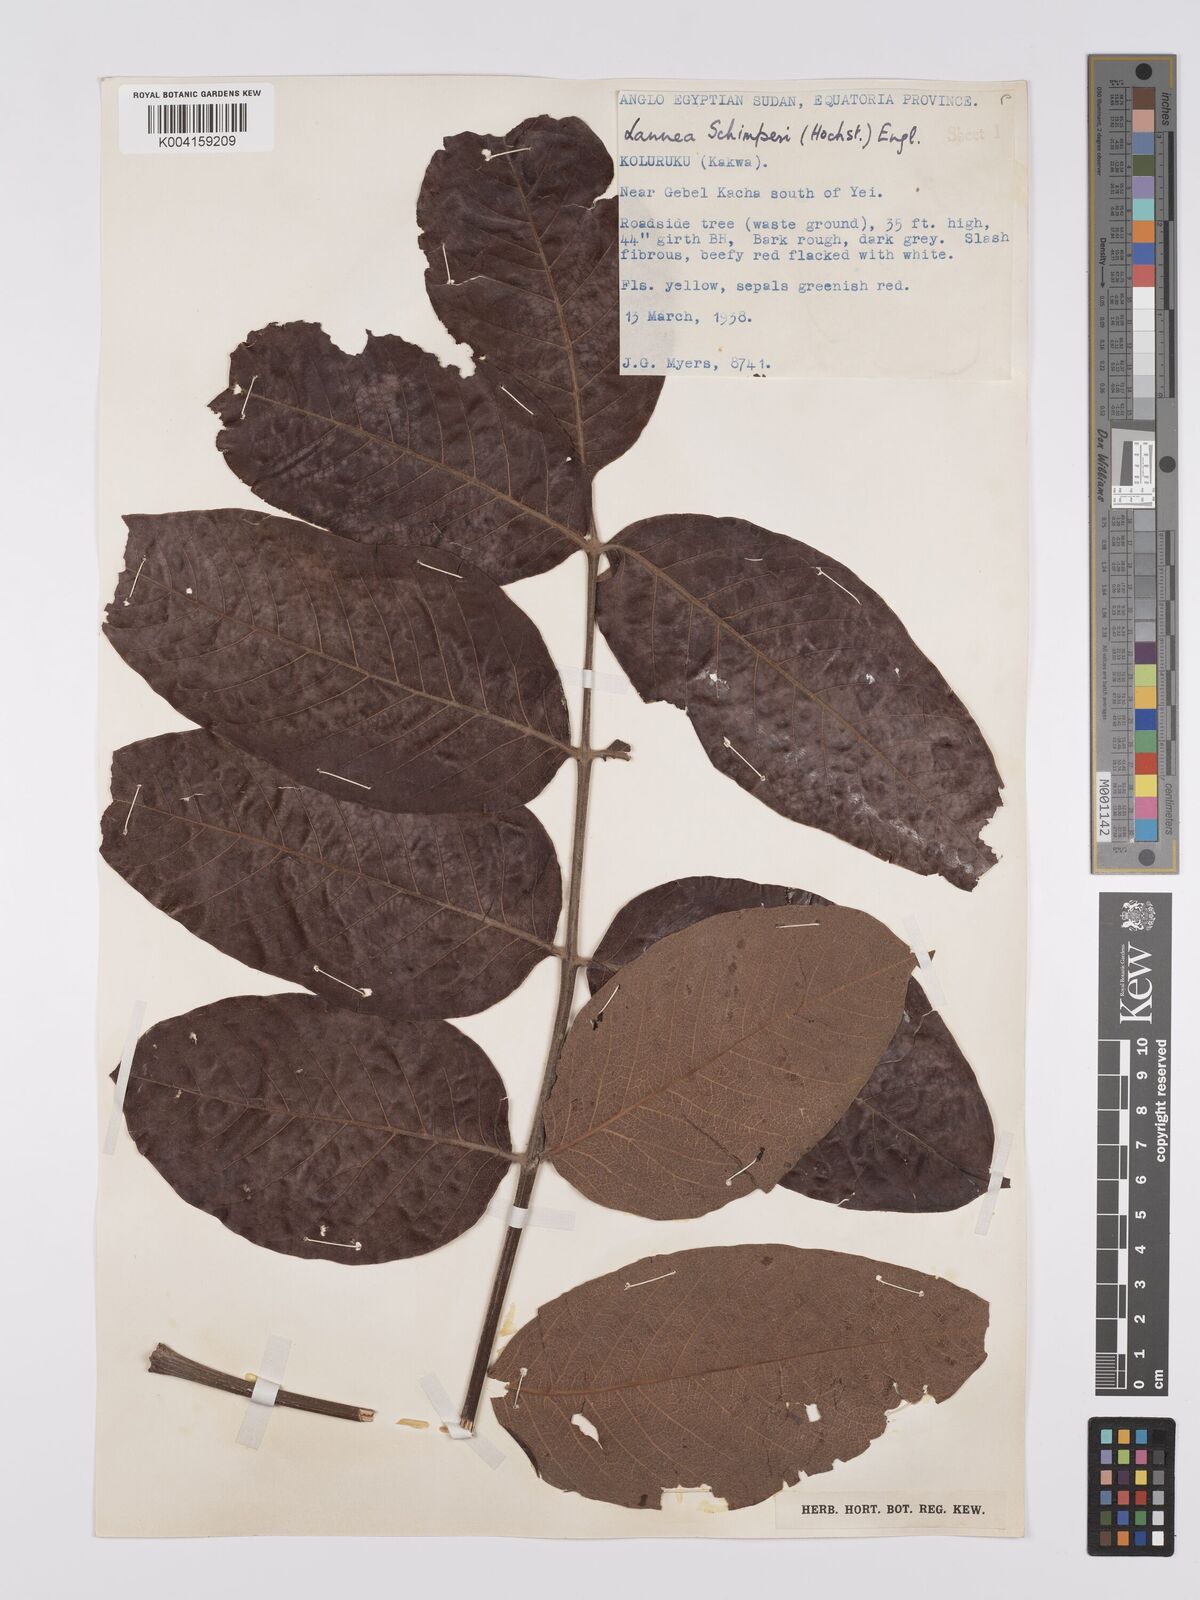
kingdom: Plantae
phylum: Tracheophyta
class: Magnoliopsida
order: Sapindales
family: Anacardiaceae
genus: Lannea
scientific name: Lannea schimperi
